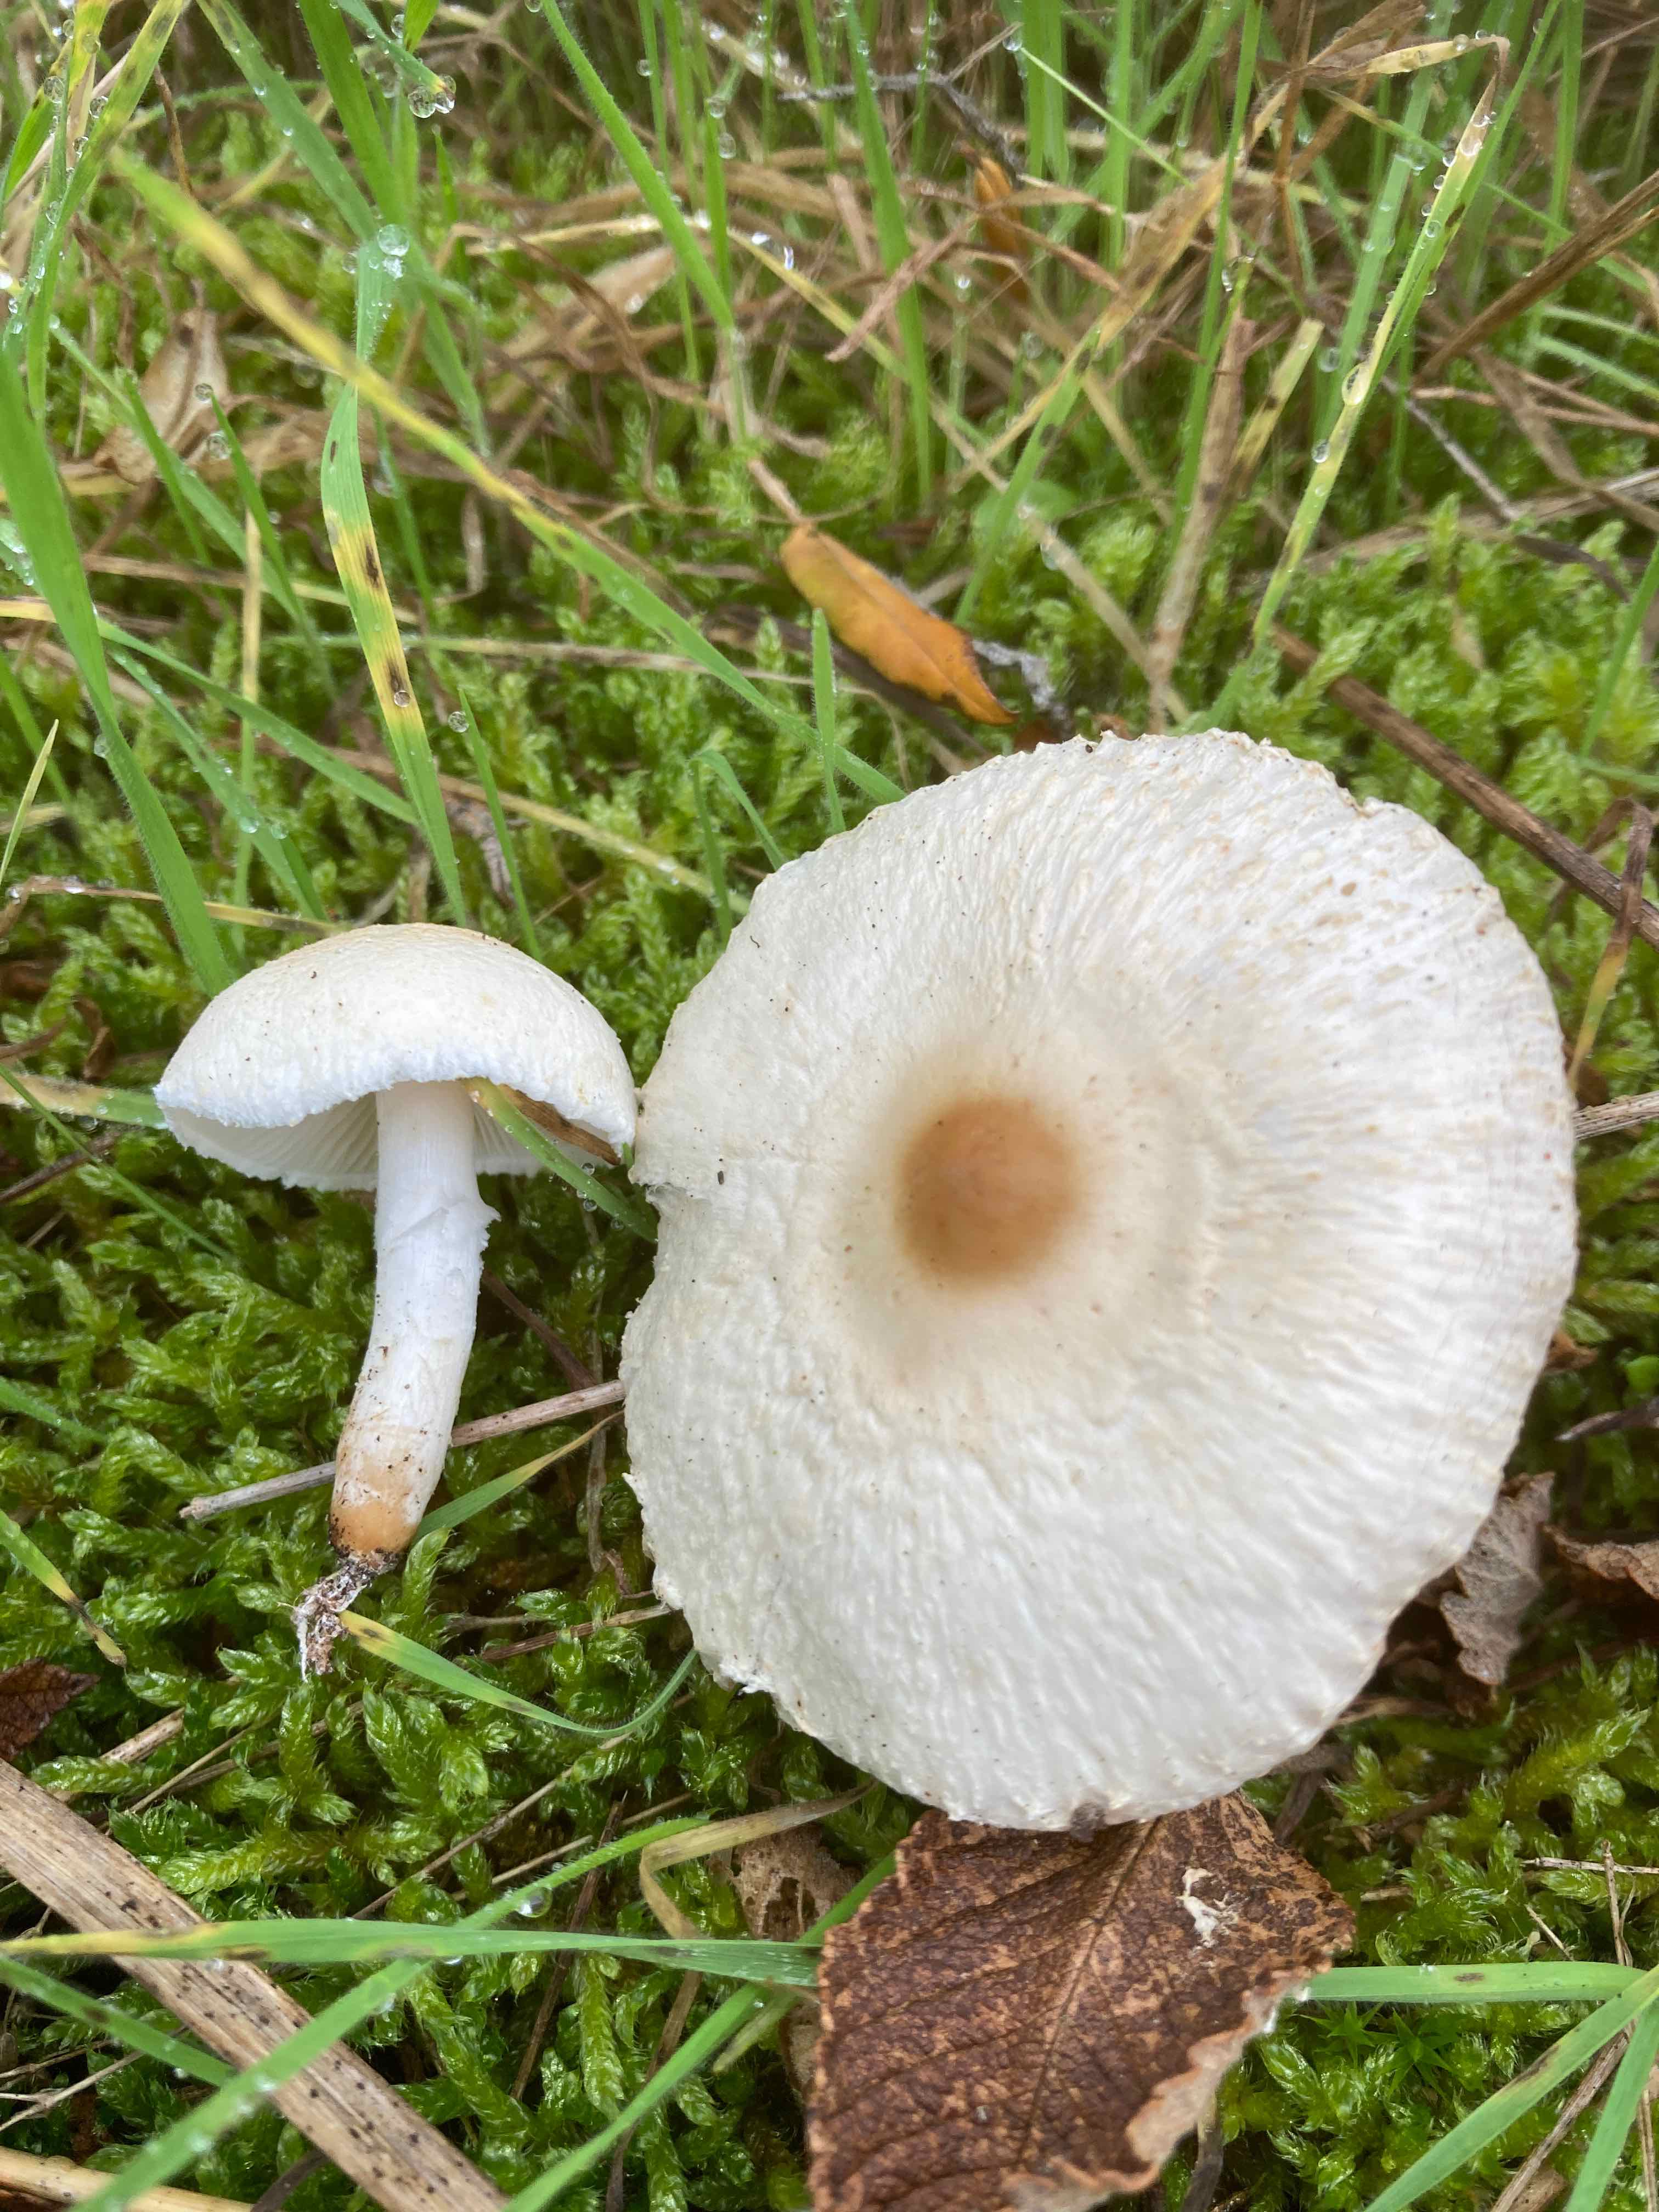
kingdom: Fungi
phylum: Basidiomycota
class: Agaricomycetes
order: Agaricales
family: Agaricaceae
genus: Lepiota
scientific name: Lepiota erminea
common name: hvid parasolhat
